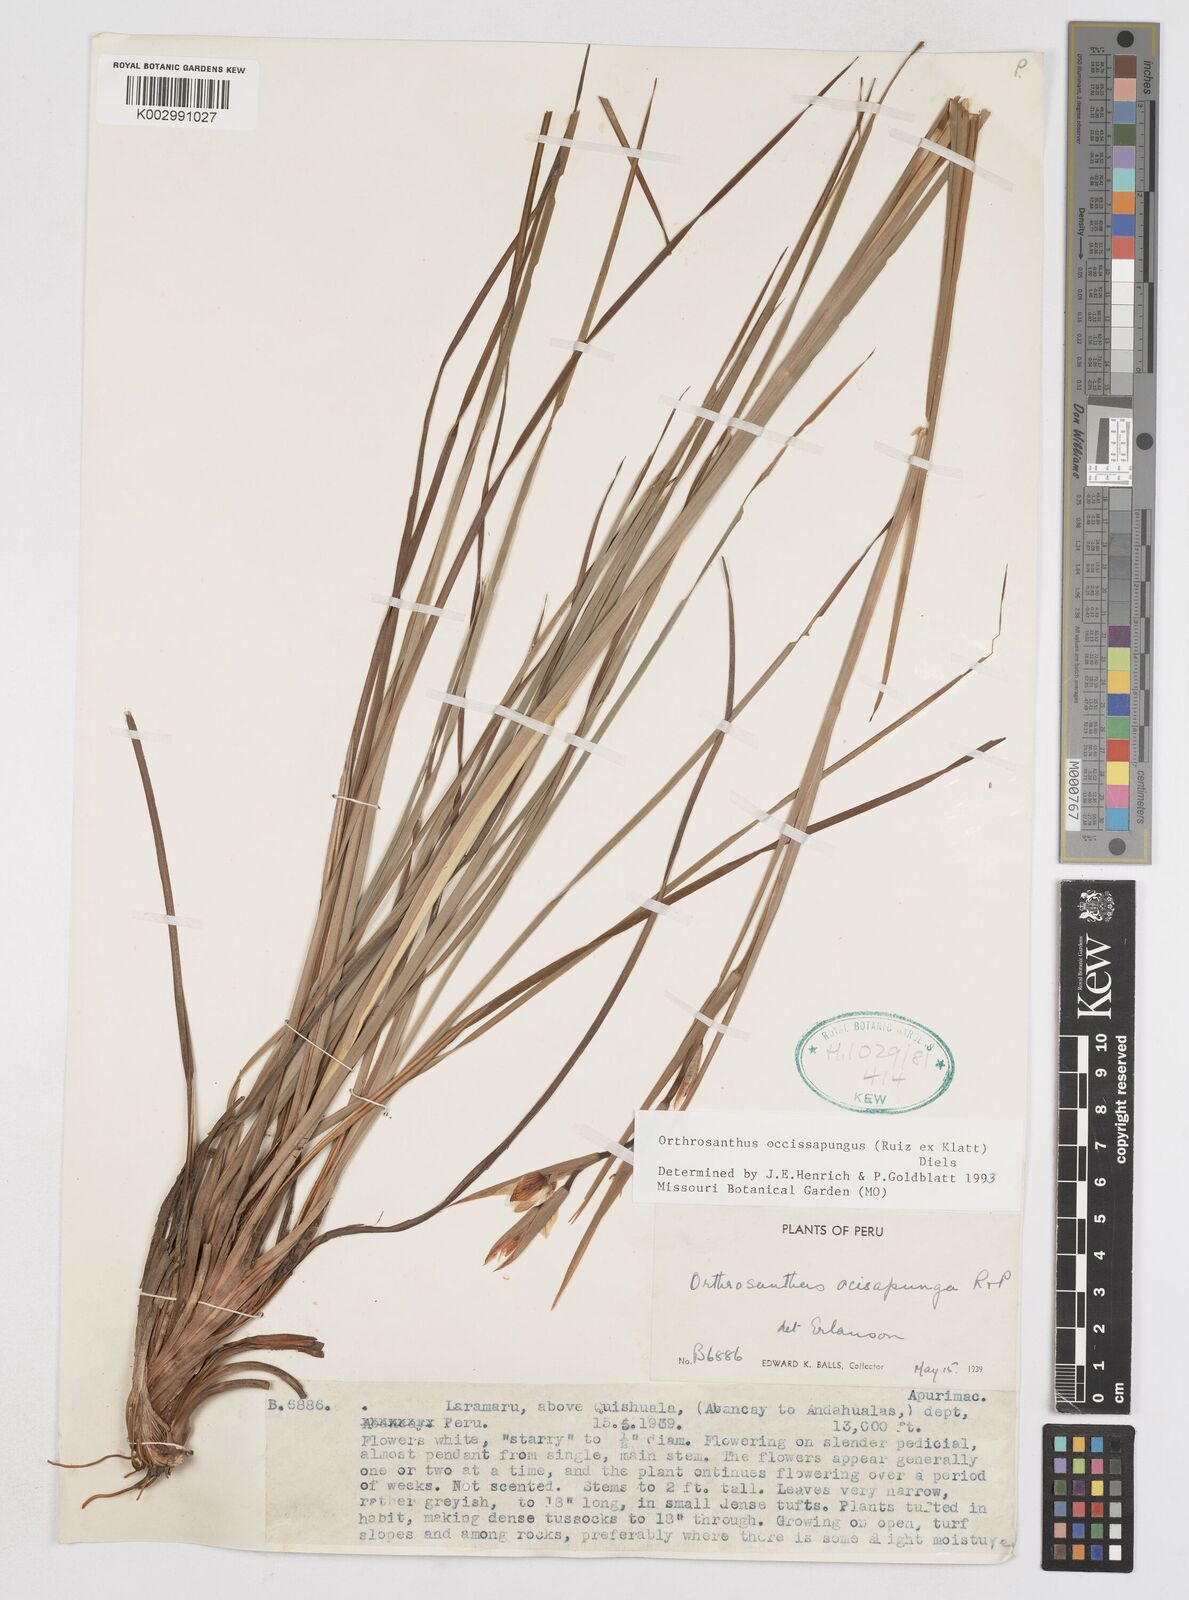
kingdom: Plantae
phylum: Tracheophyta
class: Liliopsida
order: Asparagales
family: Iridaceae
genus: Orthrosanthus
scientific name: Orthrosanthus occissapungus
